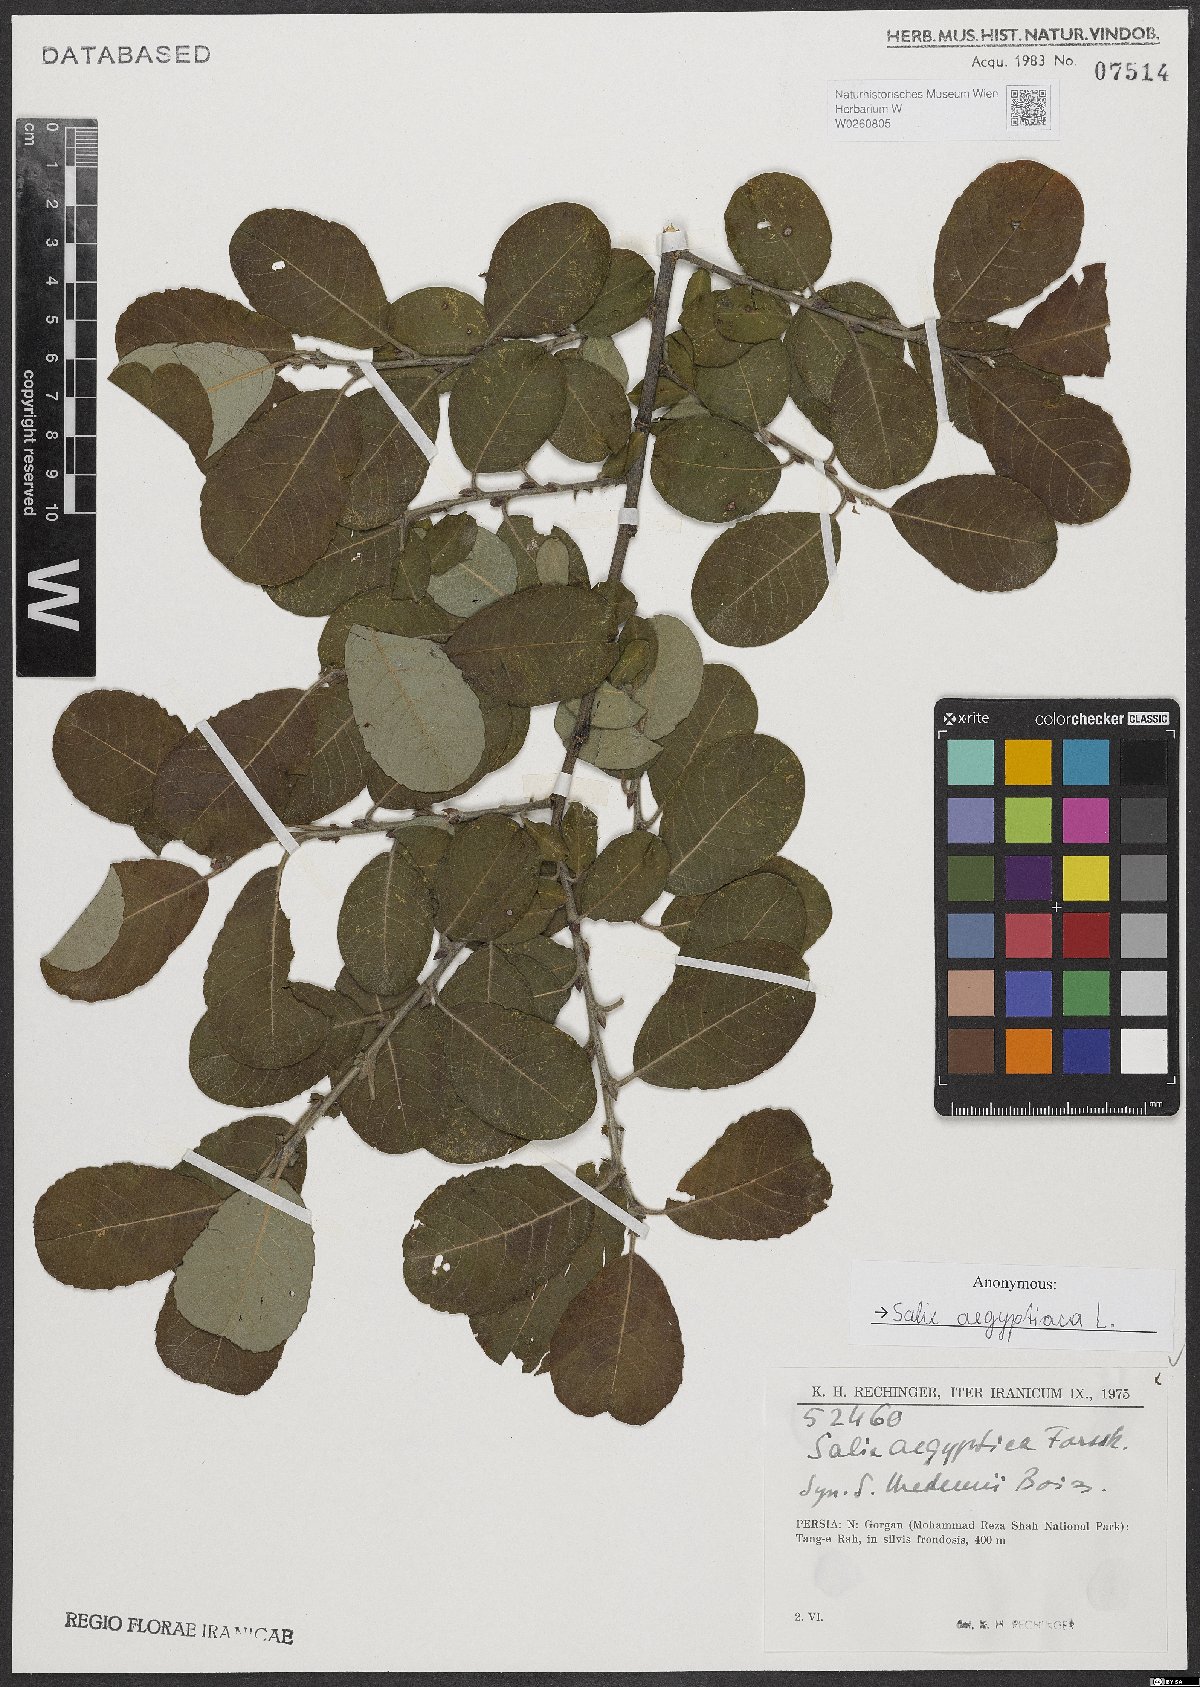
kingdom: Plantae
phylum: Tracheophyta
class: Magnoliopsida
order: Malpighiales
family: Salicaceae
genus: Salix
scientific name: Salix aegyptiaca
